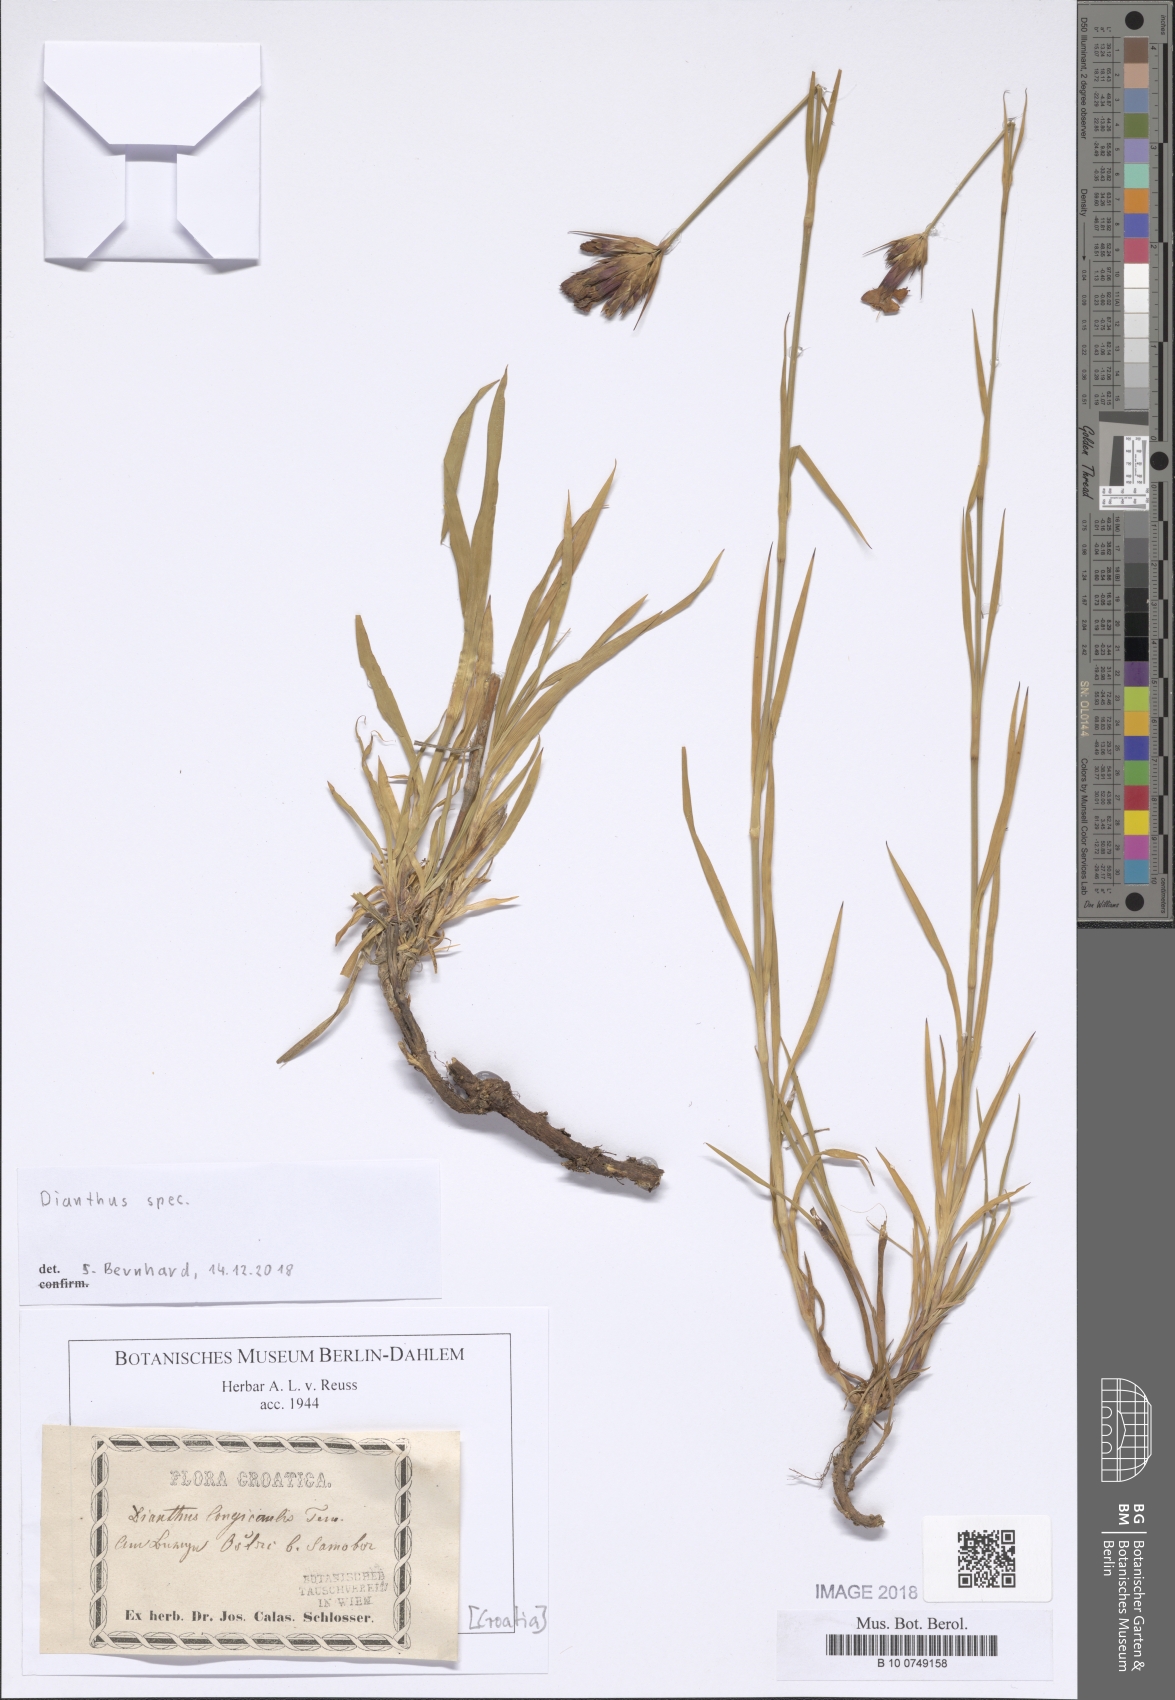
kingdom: Plantae
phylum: Tracheophyta
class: Magnoliopsida
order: Caryophyllales
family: Caryophyllaceae
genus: Dianthus
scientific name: Dianthus trifasciculatus
